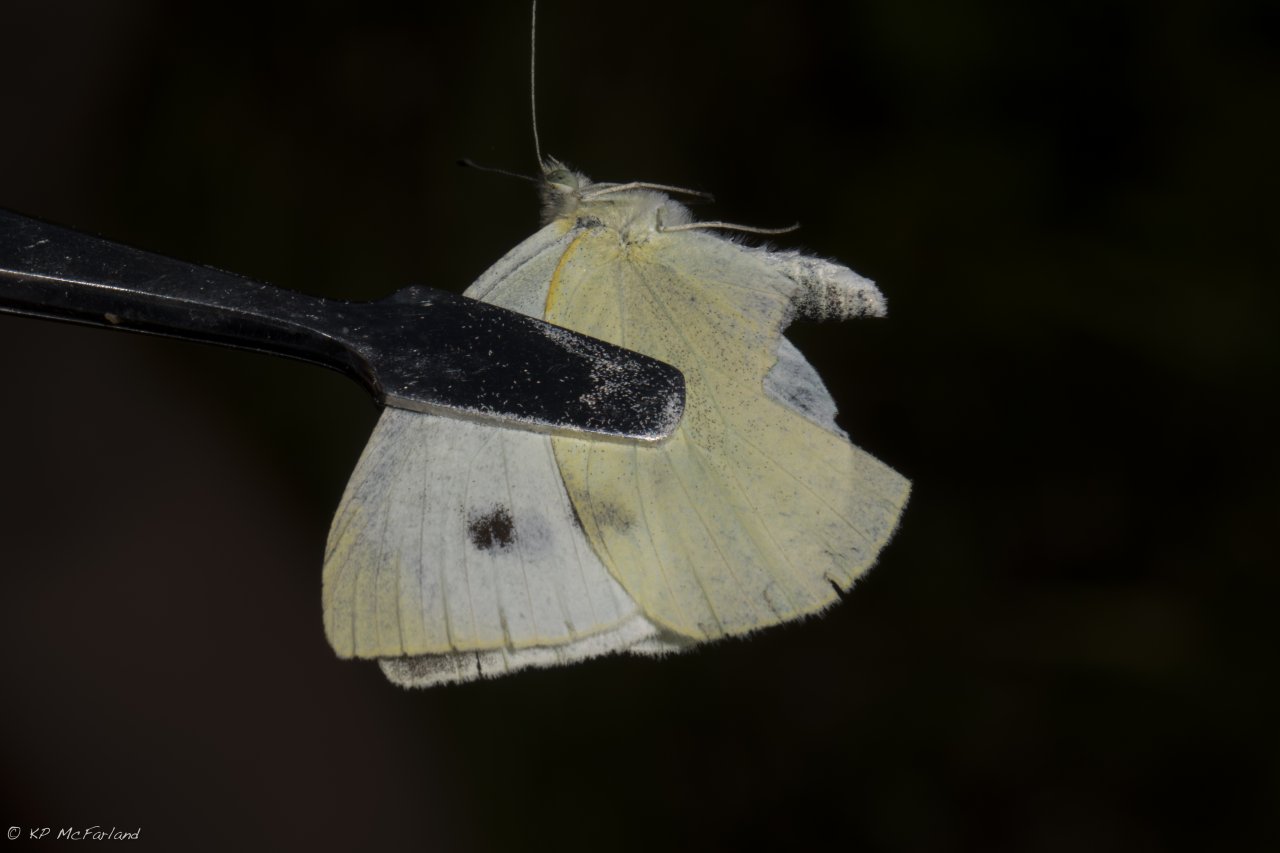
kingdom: Animalia
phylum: Arthropoda
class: Insecta
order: Lepidoptera
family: Pieridae
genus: Pieris
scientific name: Pieris rapae
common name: Cabbage White
